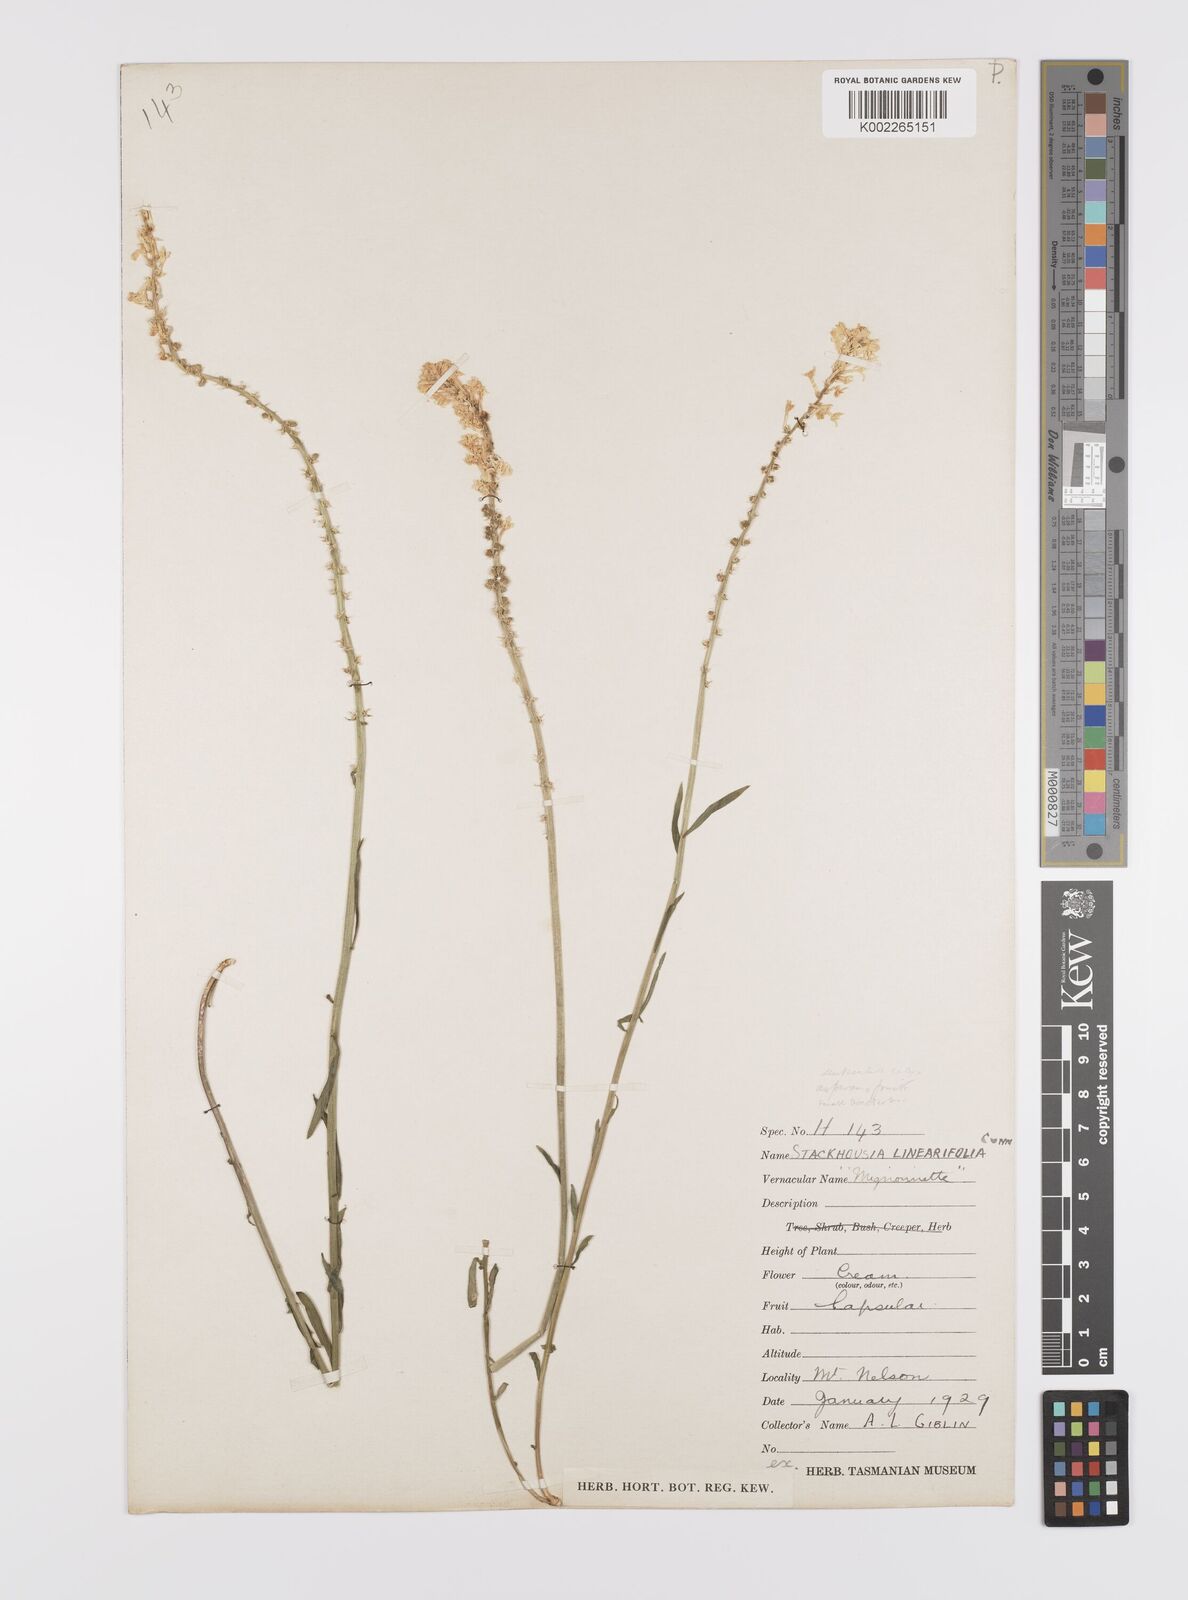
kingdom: Plantae
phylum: Tracheophyta
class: Magnoliopsida
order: Celastrales
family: Celastraceae
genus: Stackhousia
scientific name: Stackhousia monogyna
